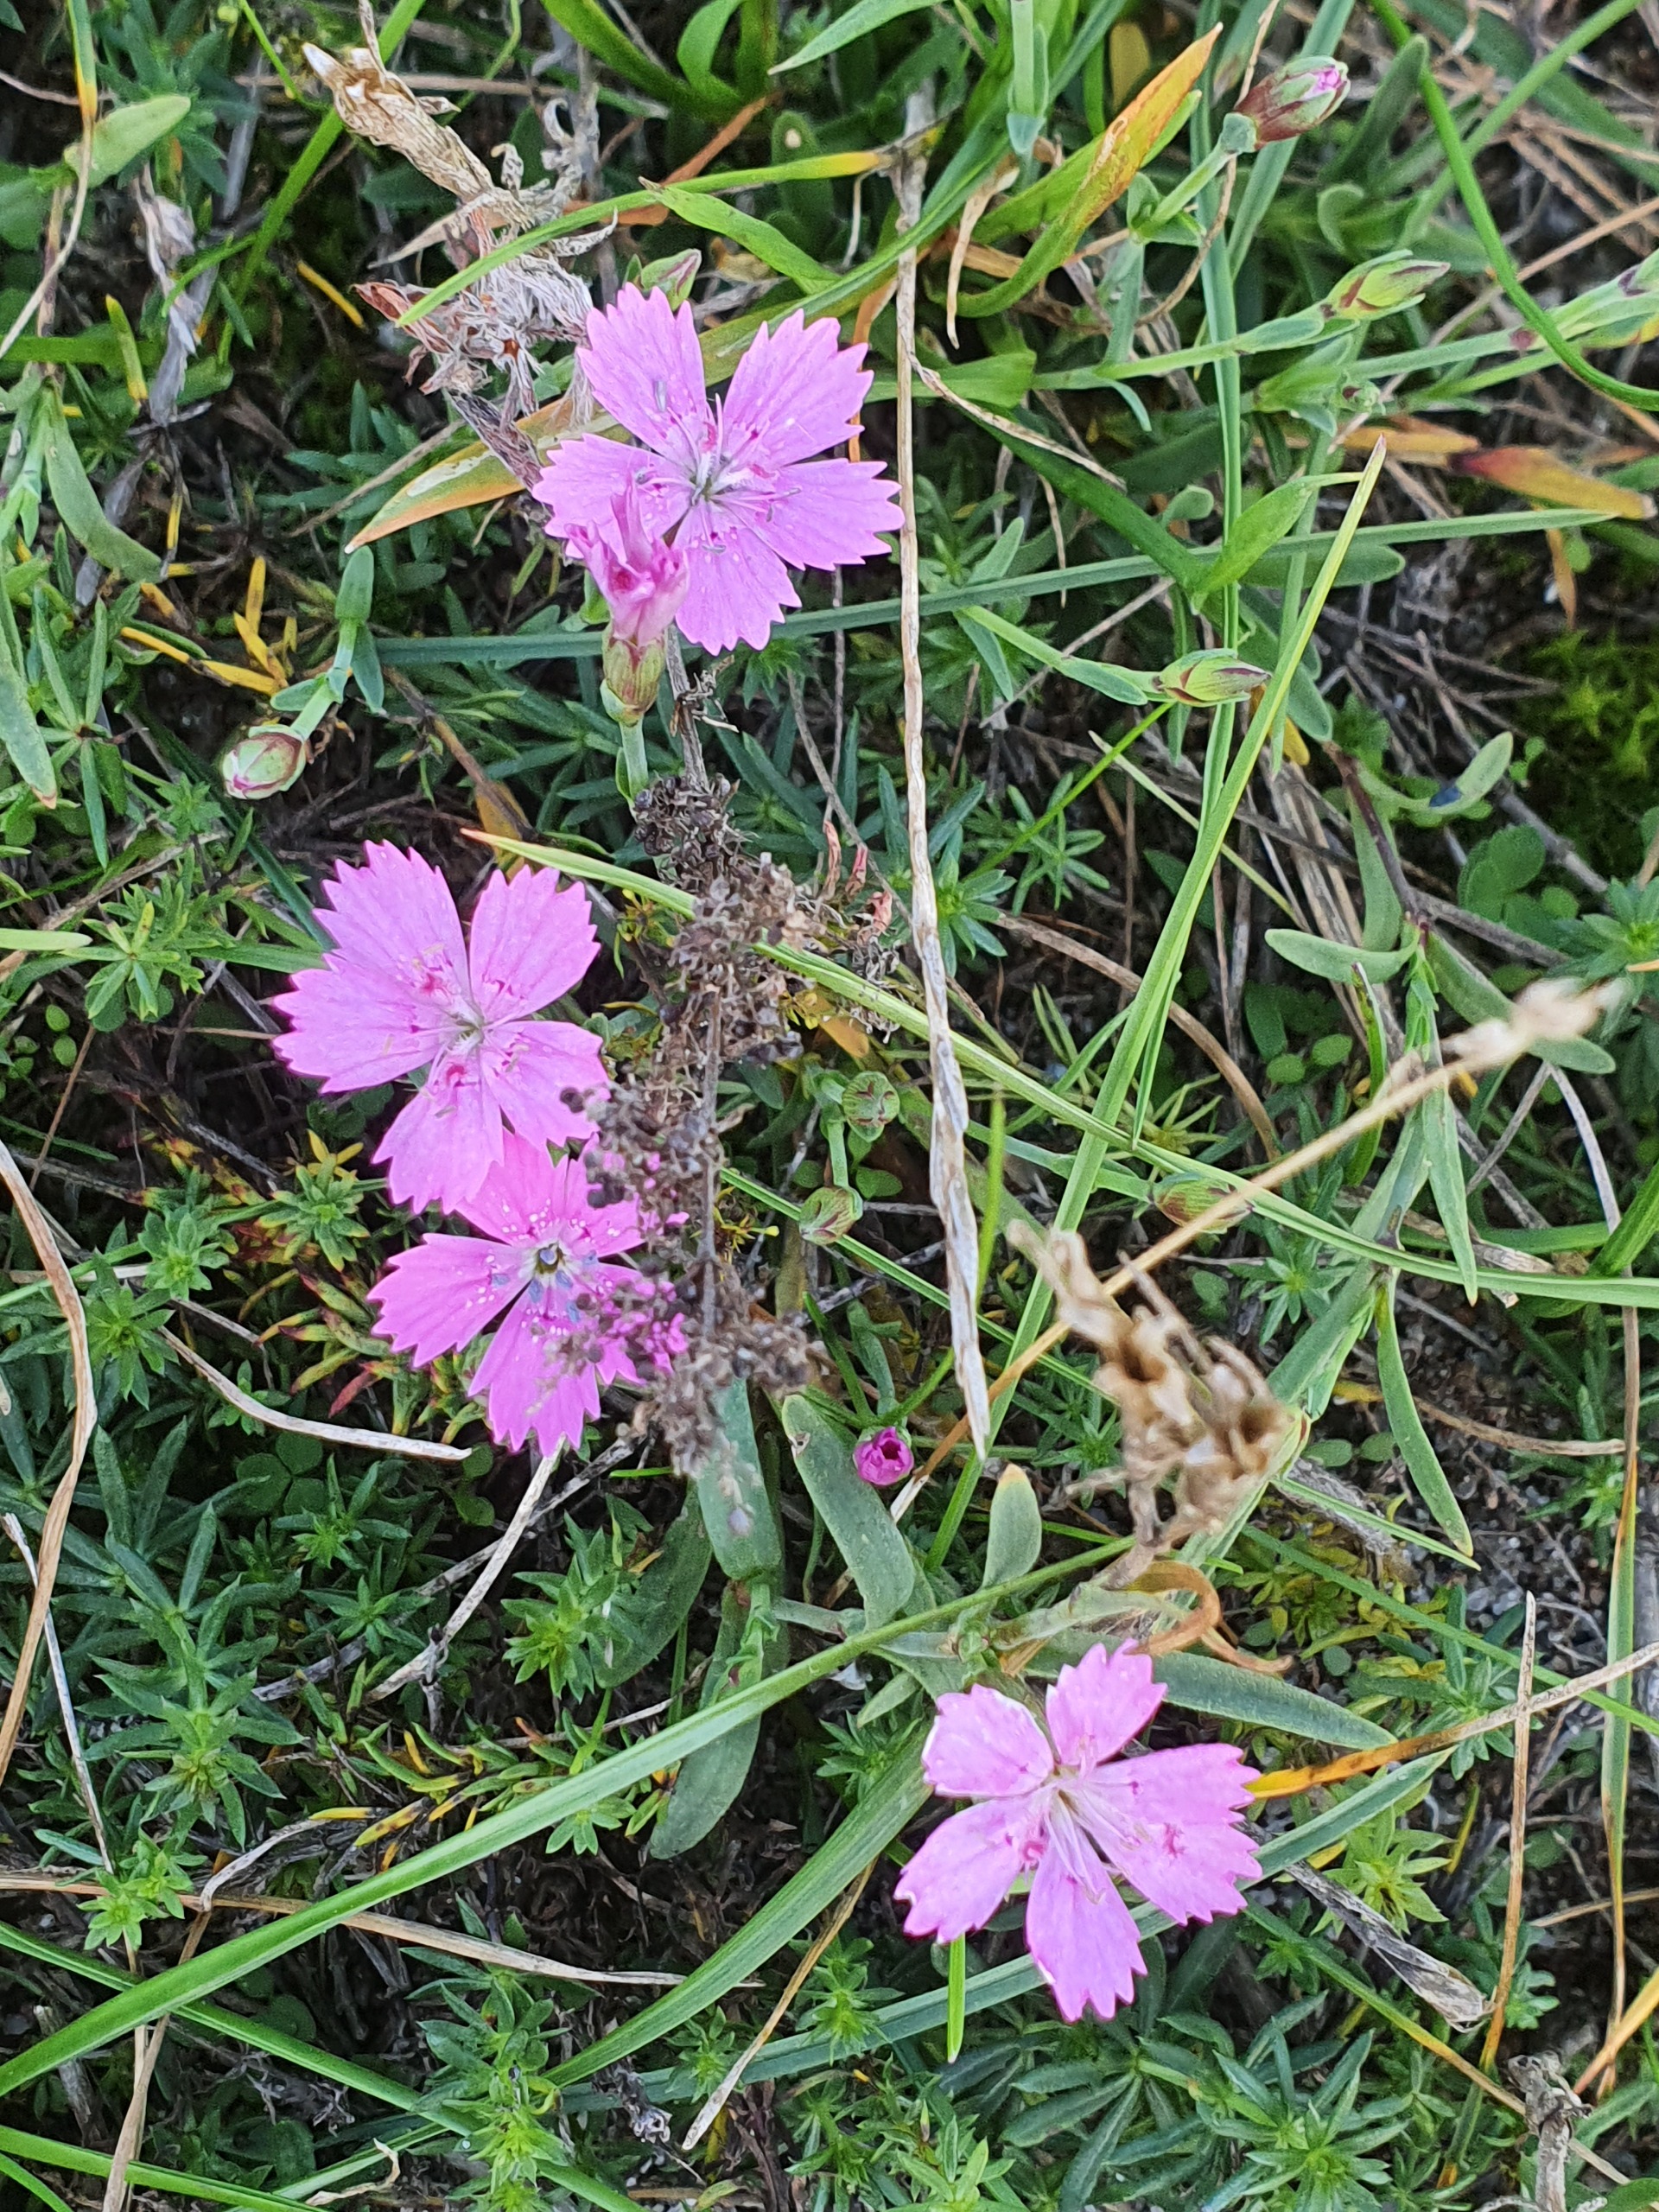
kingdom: Plantae
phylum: Tracheophyta
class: Magnoliopsida
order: Caryophyllales
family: Caryophyllaceae
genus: Dianthus
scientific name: Dianthus deltoides
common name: Bakke-nellike
